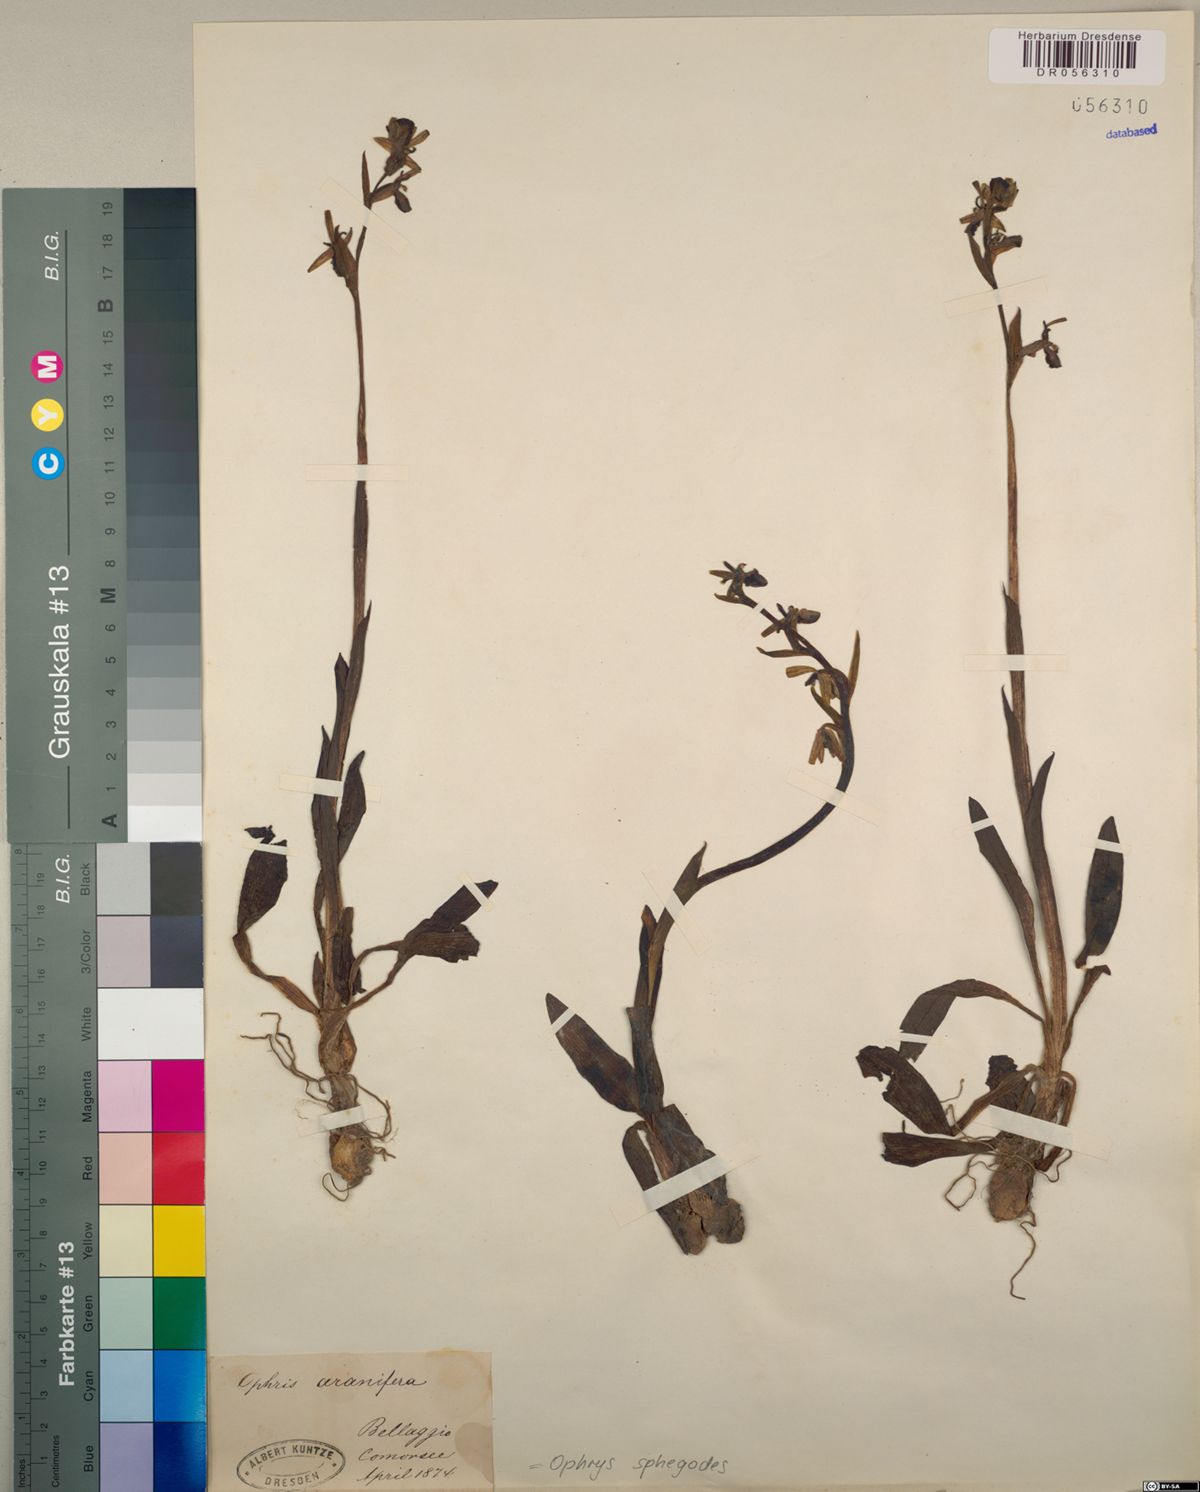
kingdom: Plantae
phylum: Tracheophyta
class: Liliopsida
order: Asparagales
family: Orchidaceae
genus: Ophrys
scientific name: Ophrys sphegodes
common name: Early spider-orchid
